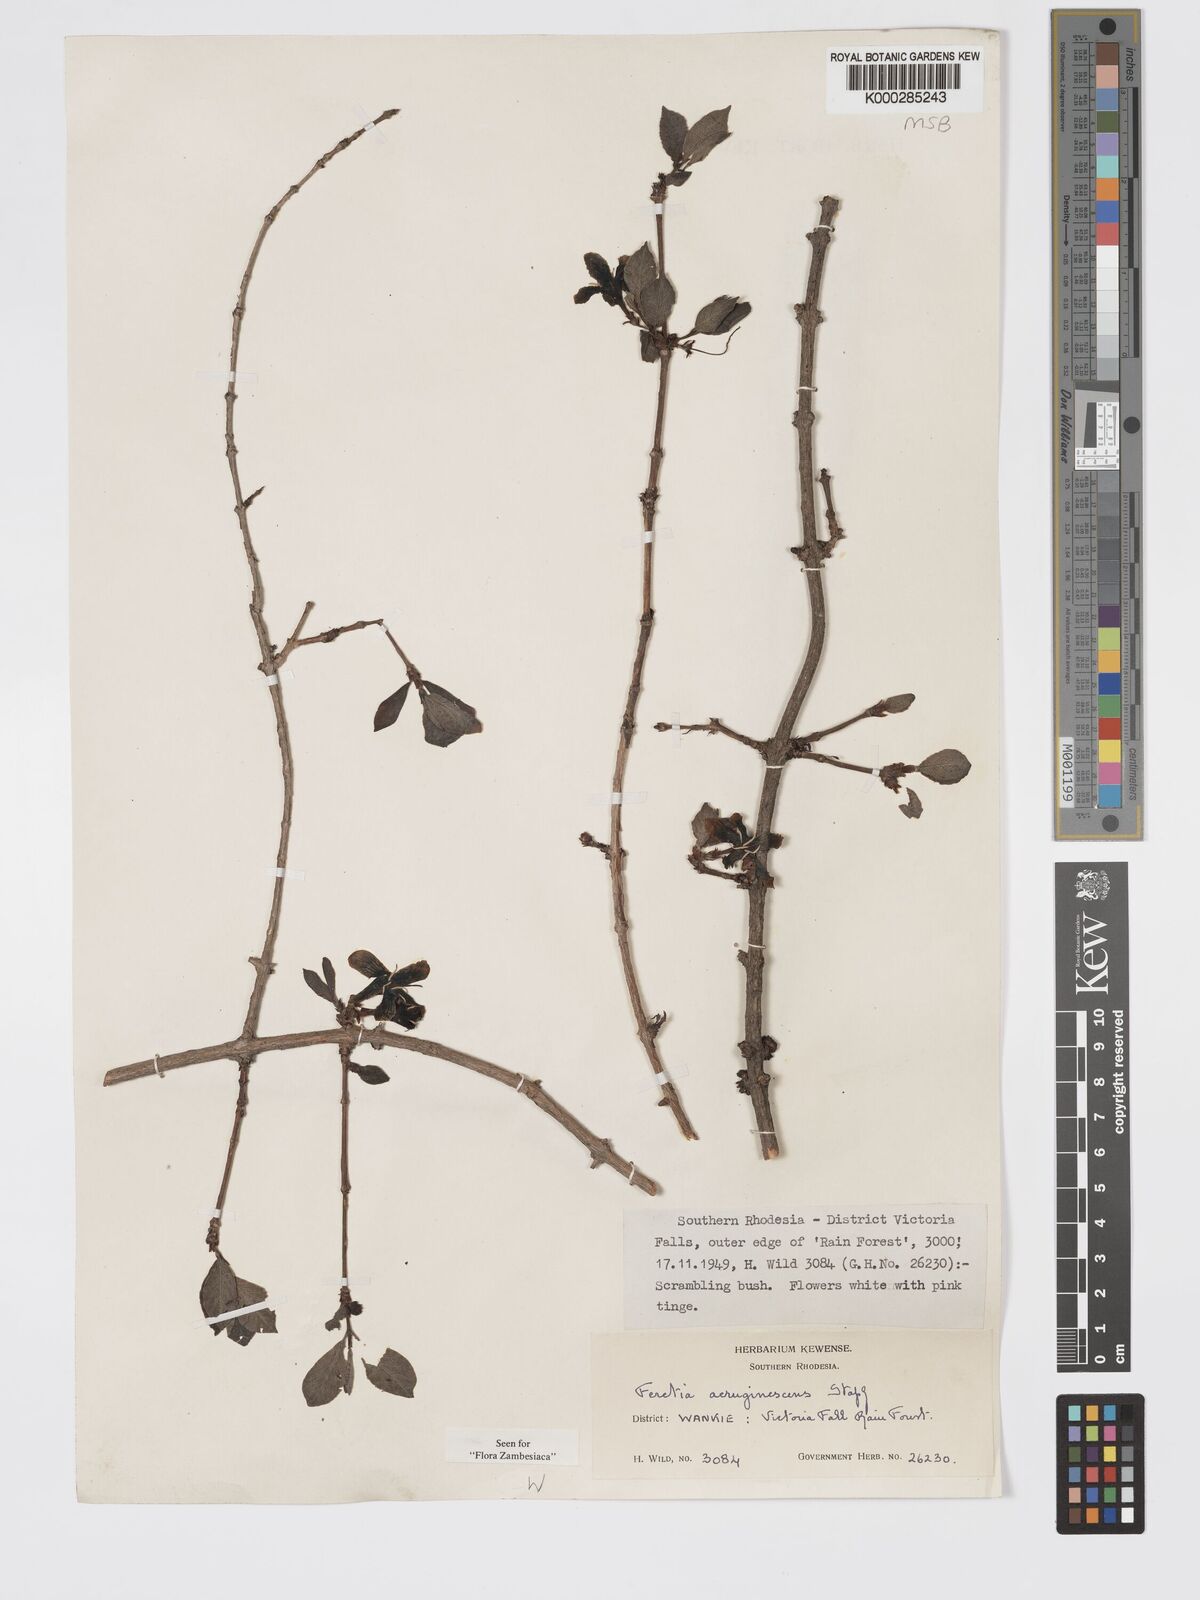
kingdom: Plantae
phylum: Tracheophyta
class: Magnoliopsida
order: Gentianales
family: Rubiaceae
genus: Feretia
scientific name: Feretia aeruginescens
